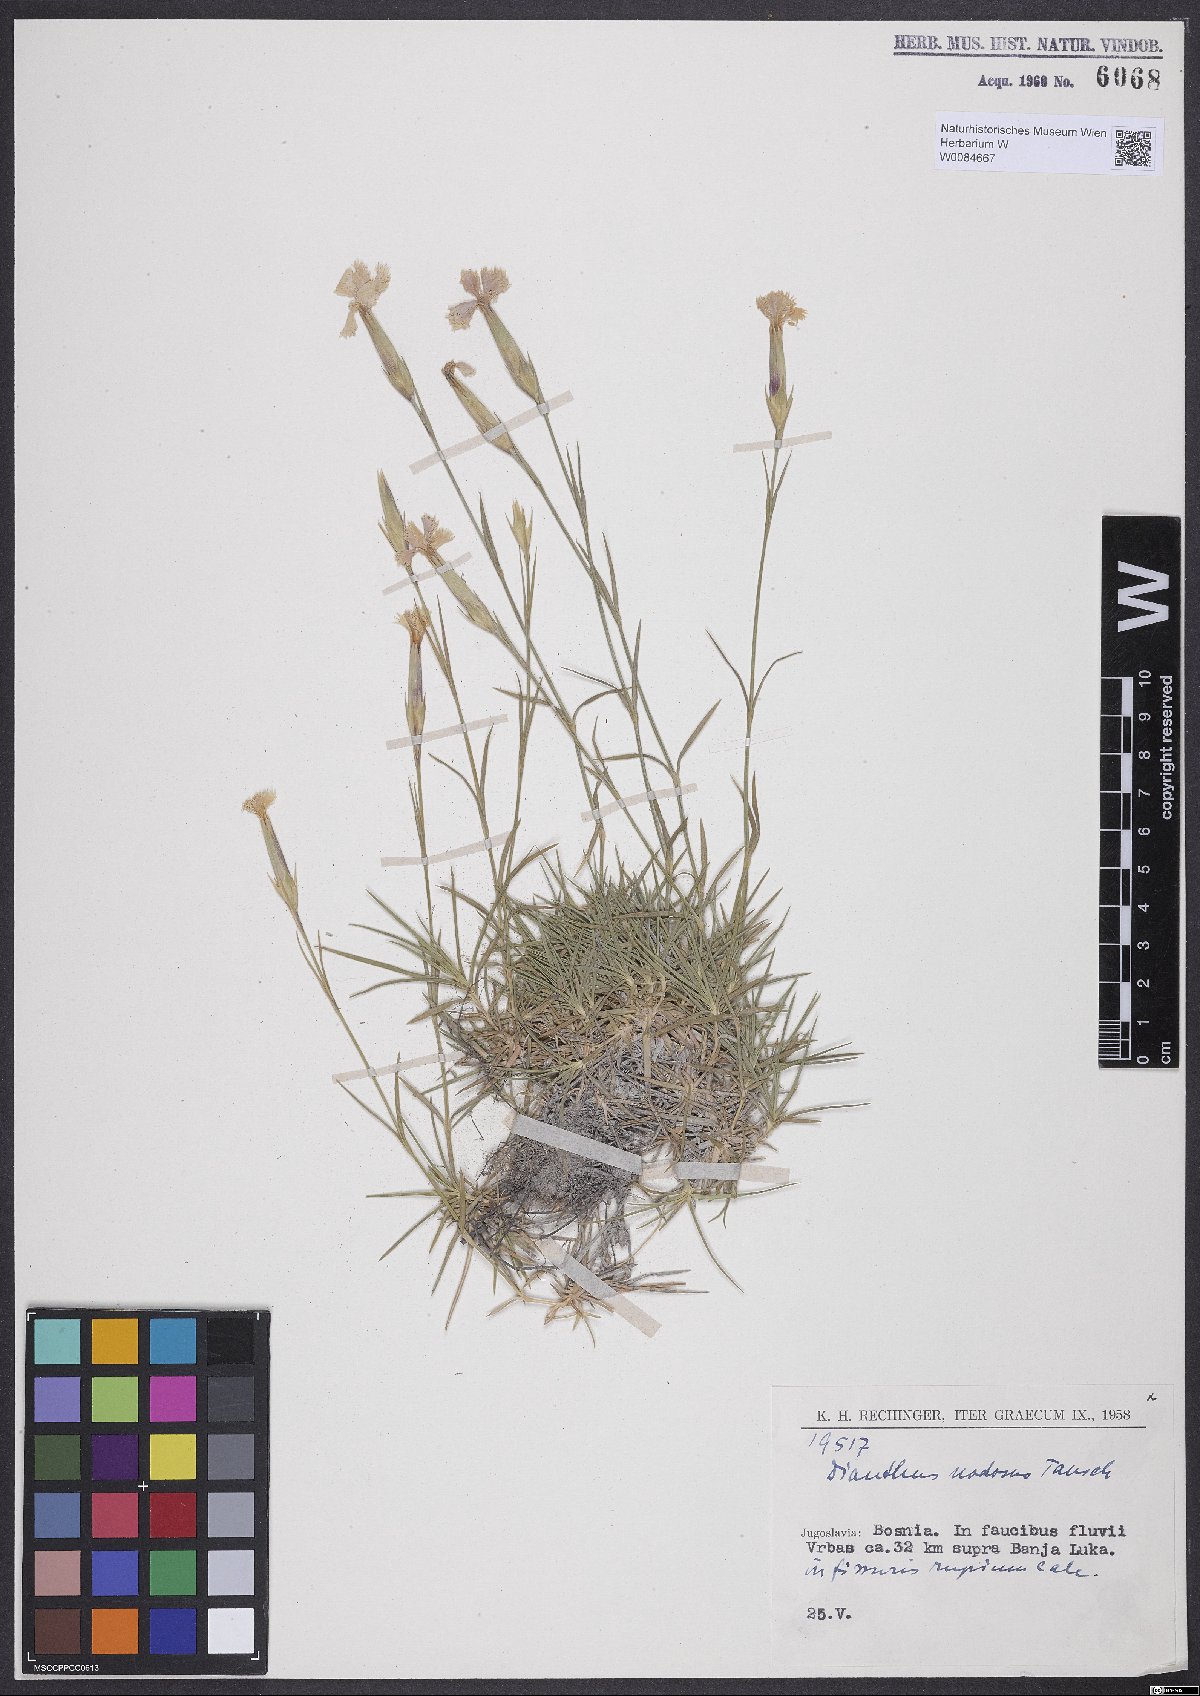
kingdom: Plantae
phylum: Tracheophyta
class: Magnoliopsida
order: Caryophyllales
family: Caryophyllaceae
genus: Dianthus
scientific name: Dianthus sylvestris
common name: Wood pink
